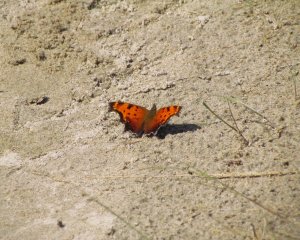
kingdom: Animalia
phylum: Arthropoda
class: Insecta
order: Lepidoptera
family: Nymphalidae
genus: Polygonia
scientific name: Polygonia progne
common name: Gray Comma
